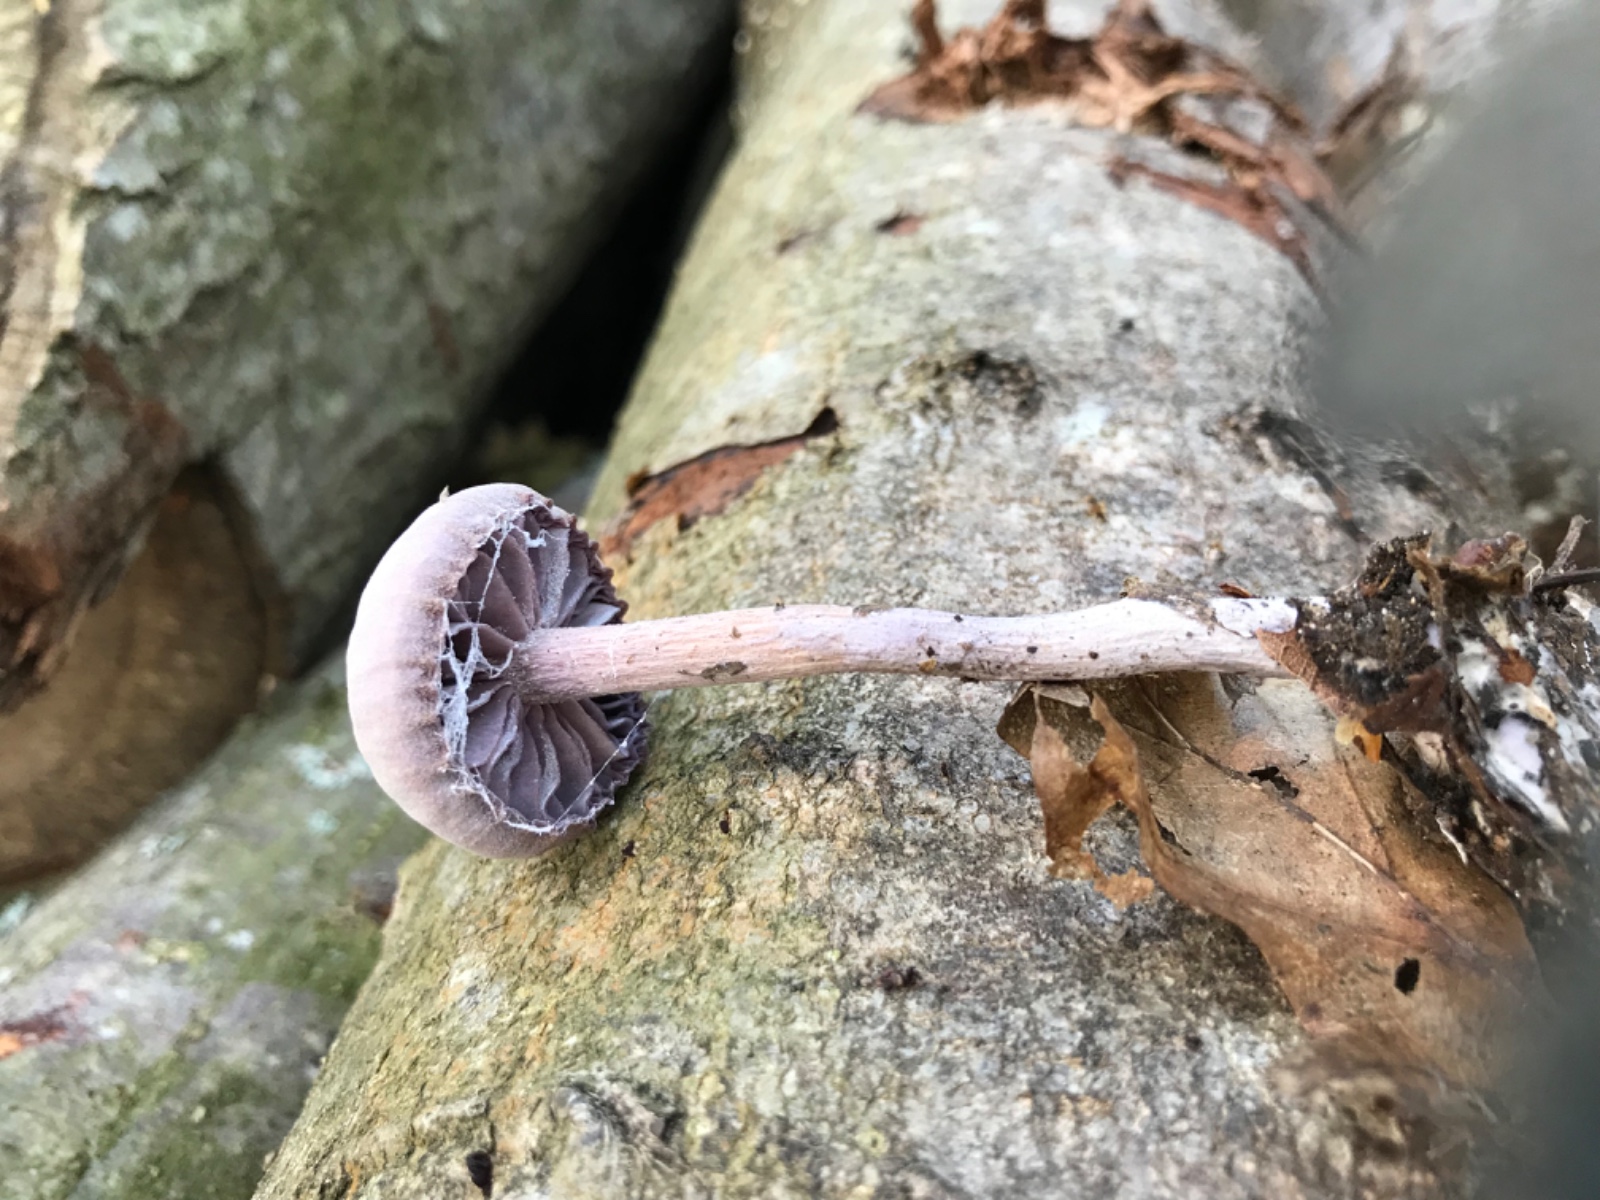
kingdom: Fungi
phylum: Basidiomycota
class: Agaricomycetes
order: Agaricales
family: Hydnangiaceae
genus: Laccaria
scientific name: Laccaria amethystina
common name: violet ametysthat
